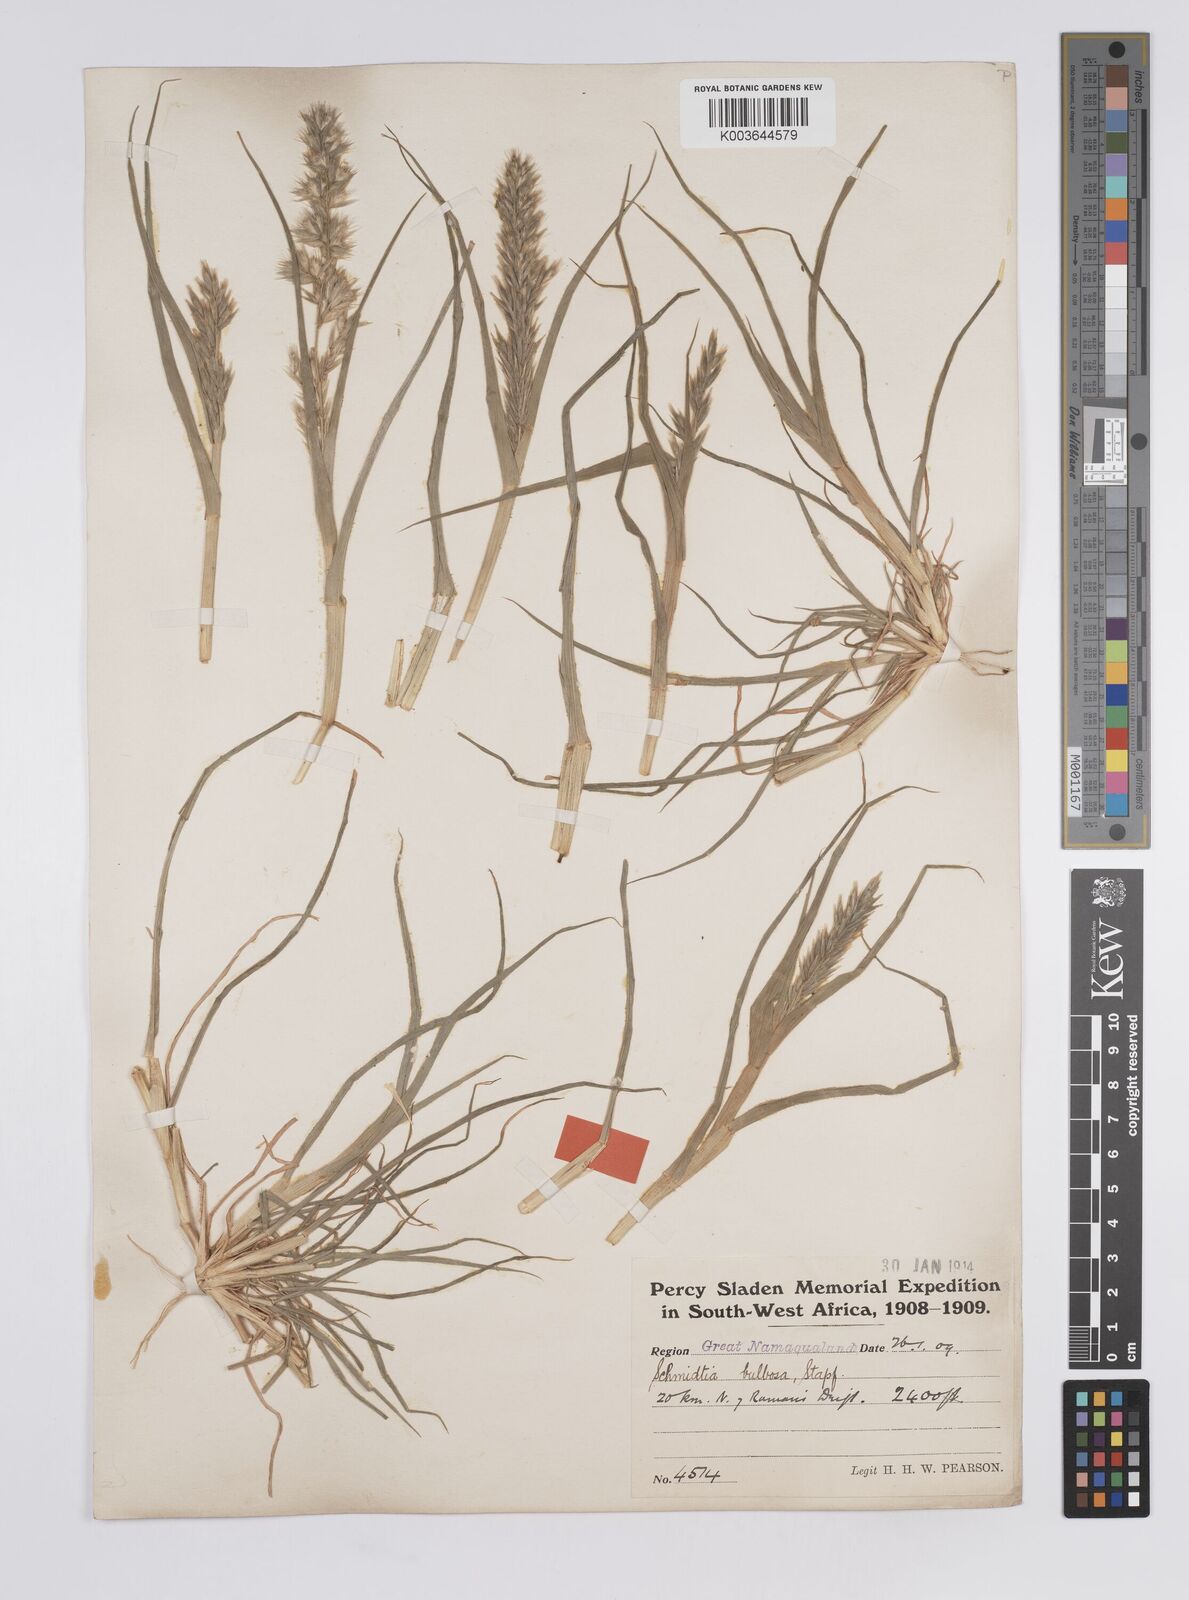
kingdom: Plantae
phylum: Tracheophyta
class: Liliopsida
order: Poales
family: Poaceae
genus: Schmidtia
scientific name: Schmidtia kalahariensis
